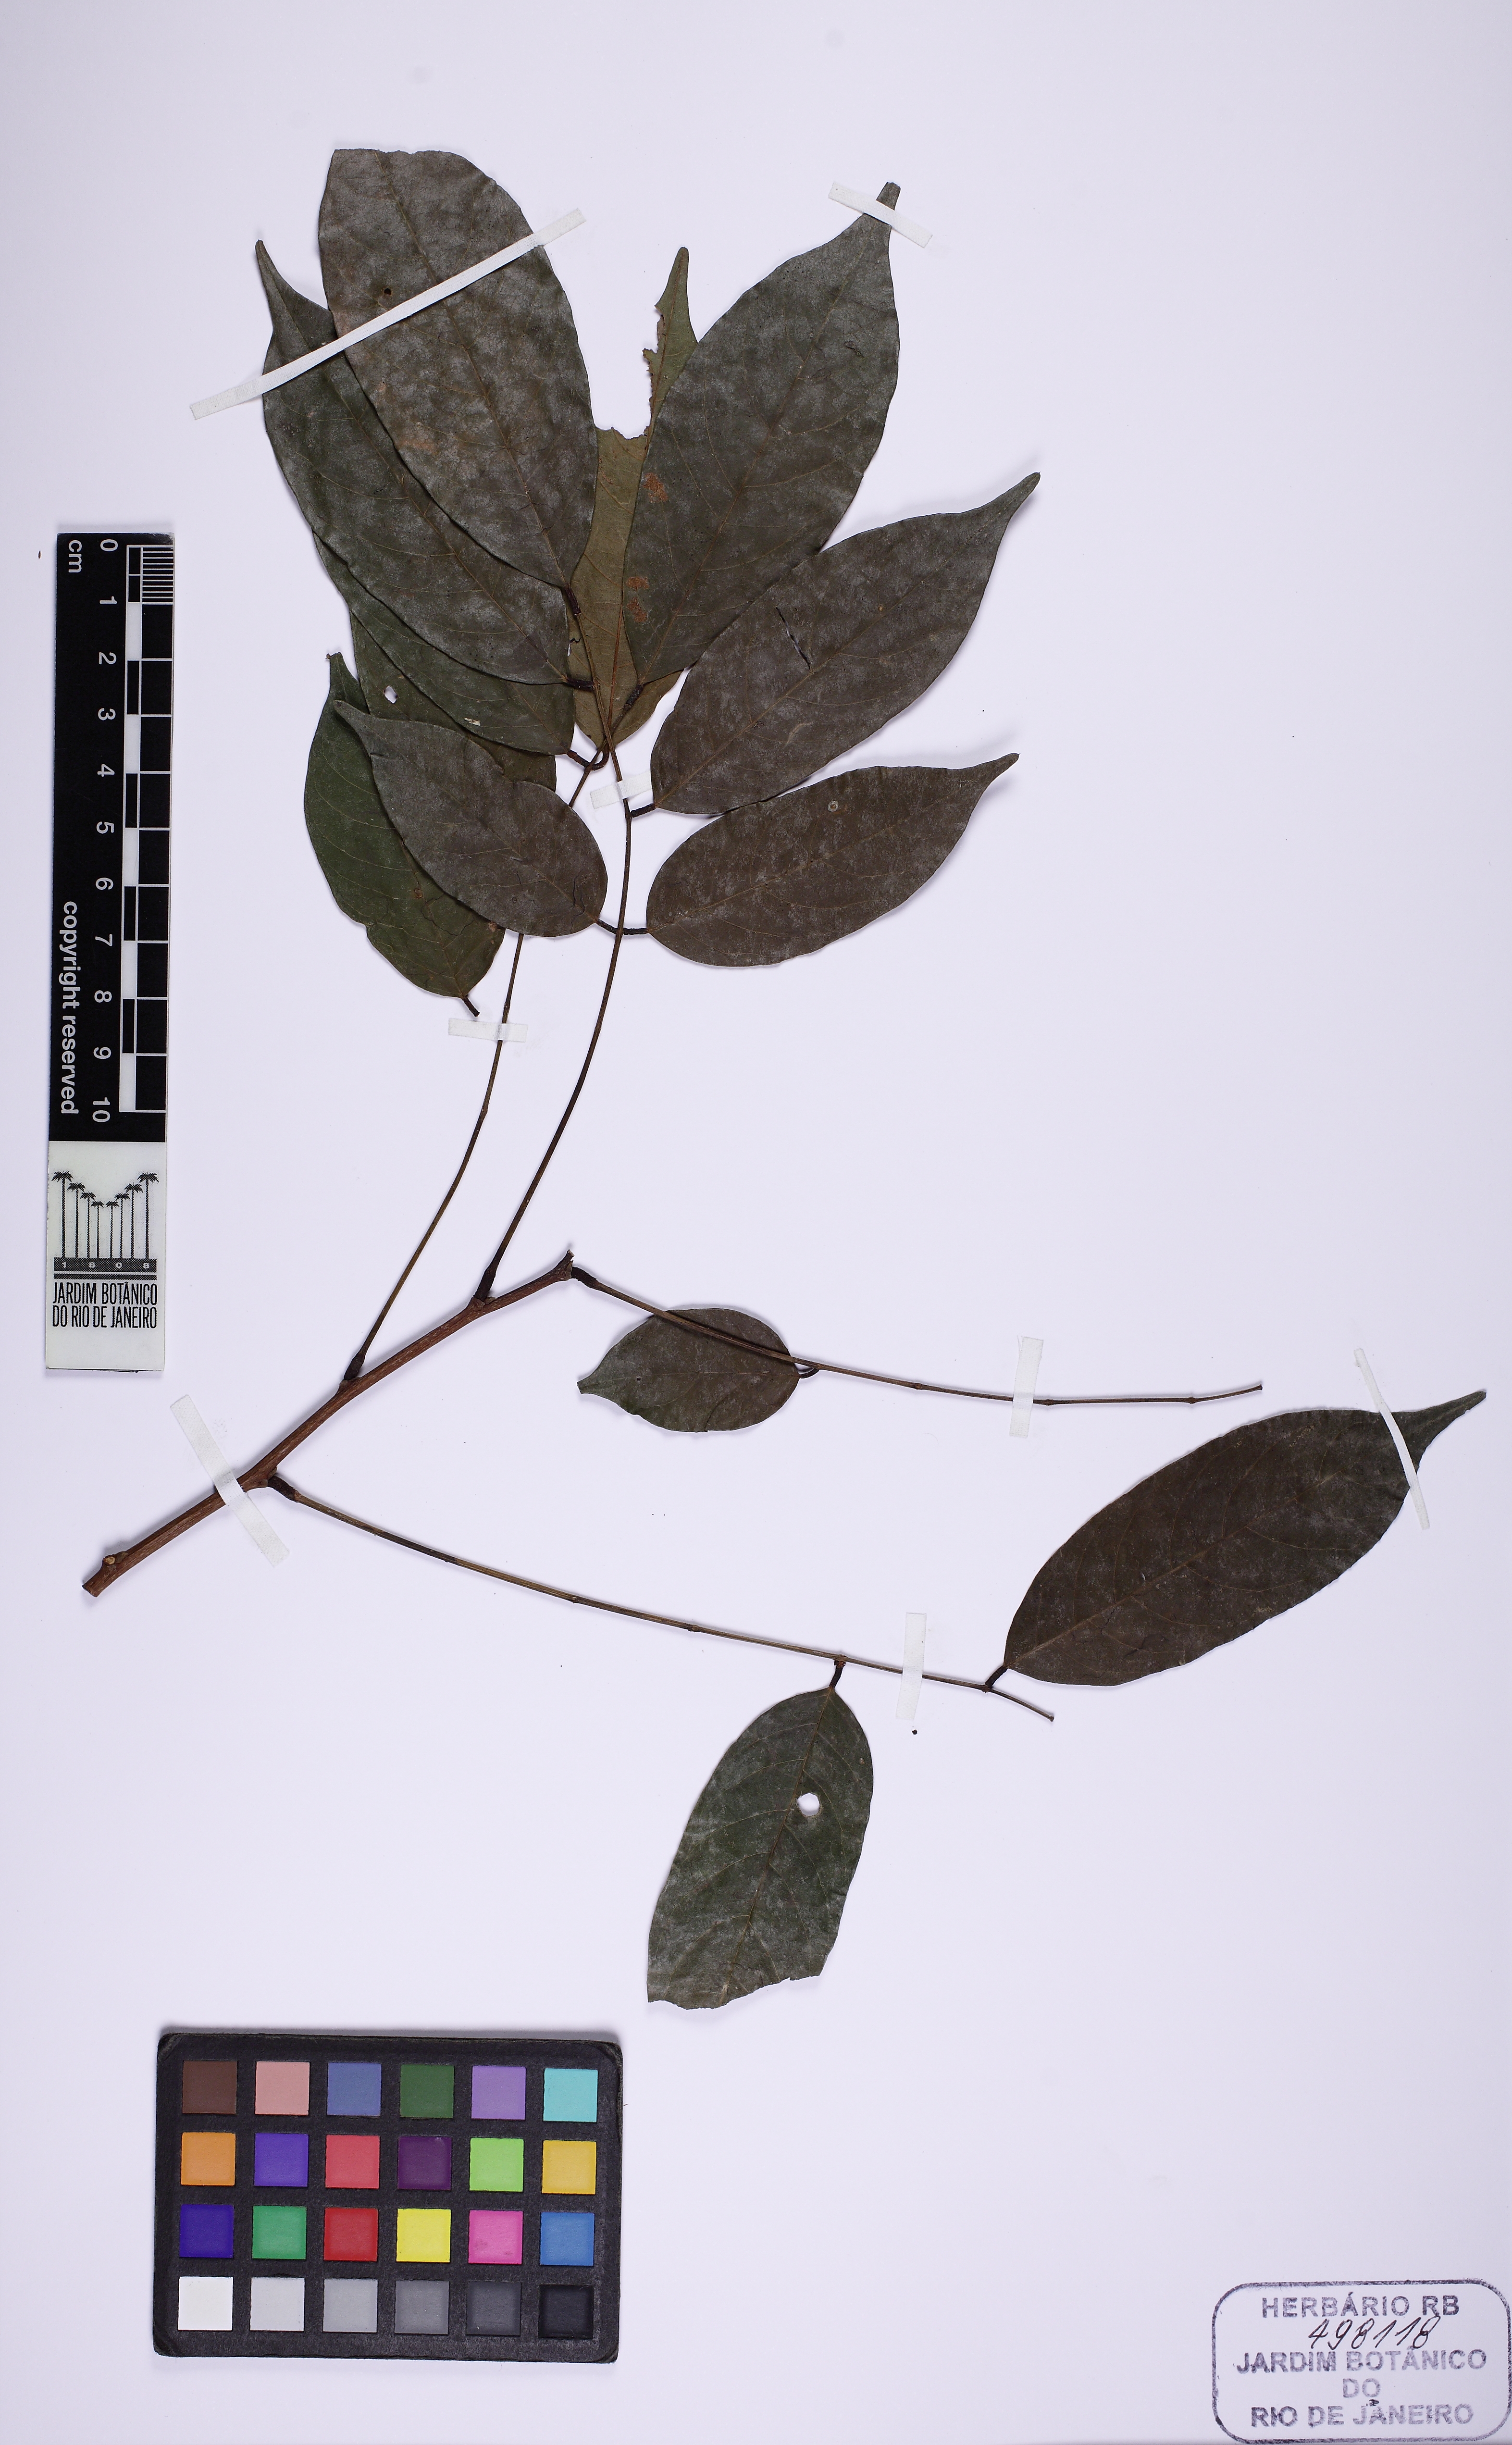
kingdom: Plantae
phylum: Tracheophyta
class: Magnoliopsida
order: Fabales
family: Fabaceae
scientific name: Fabaceae
